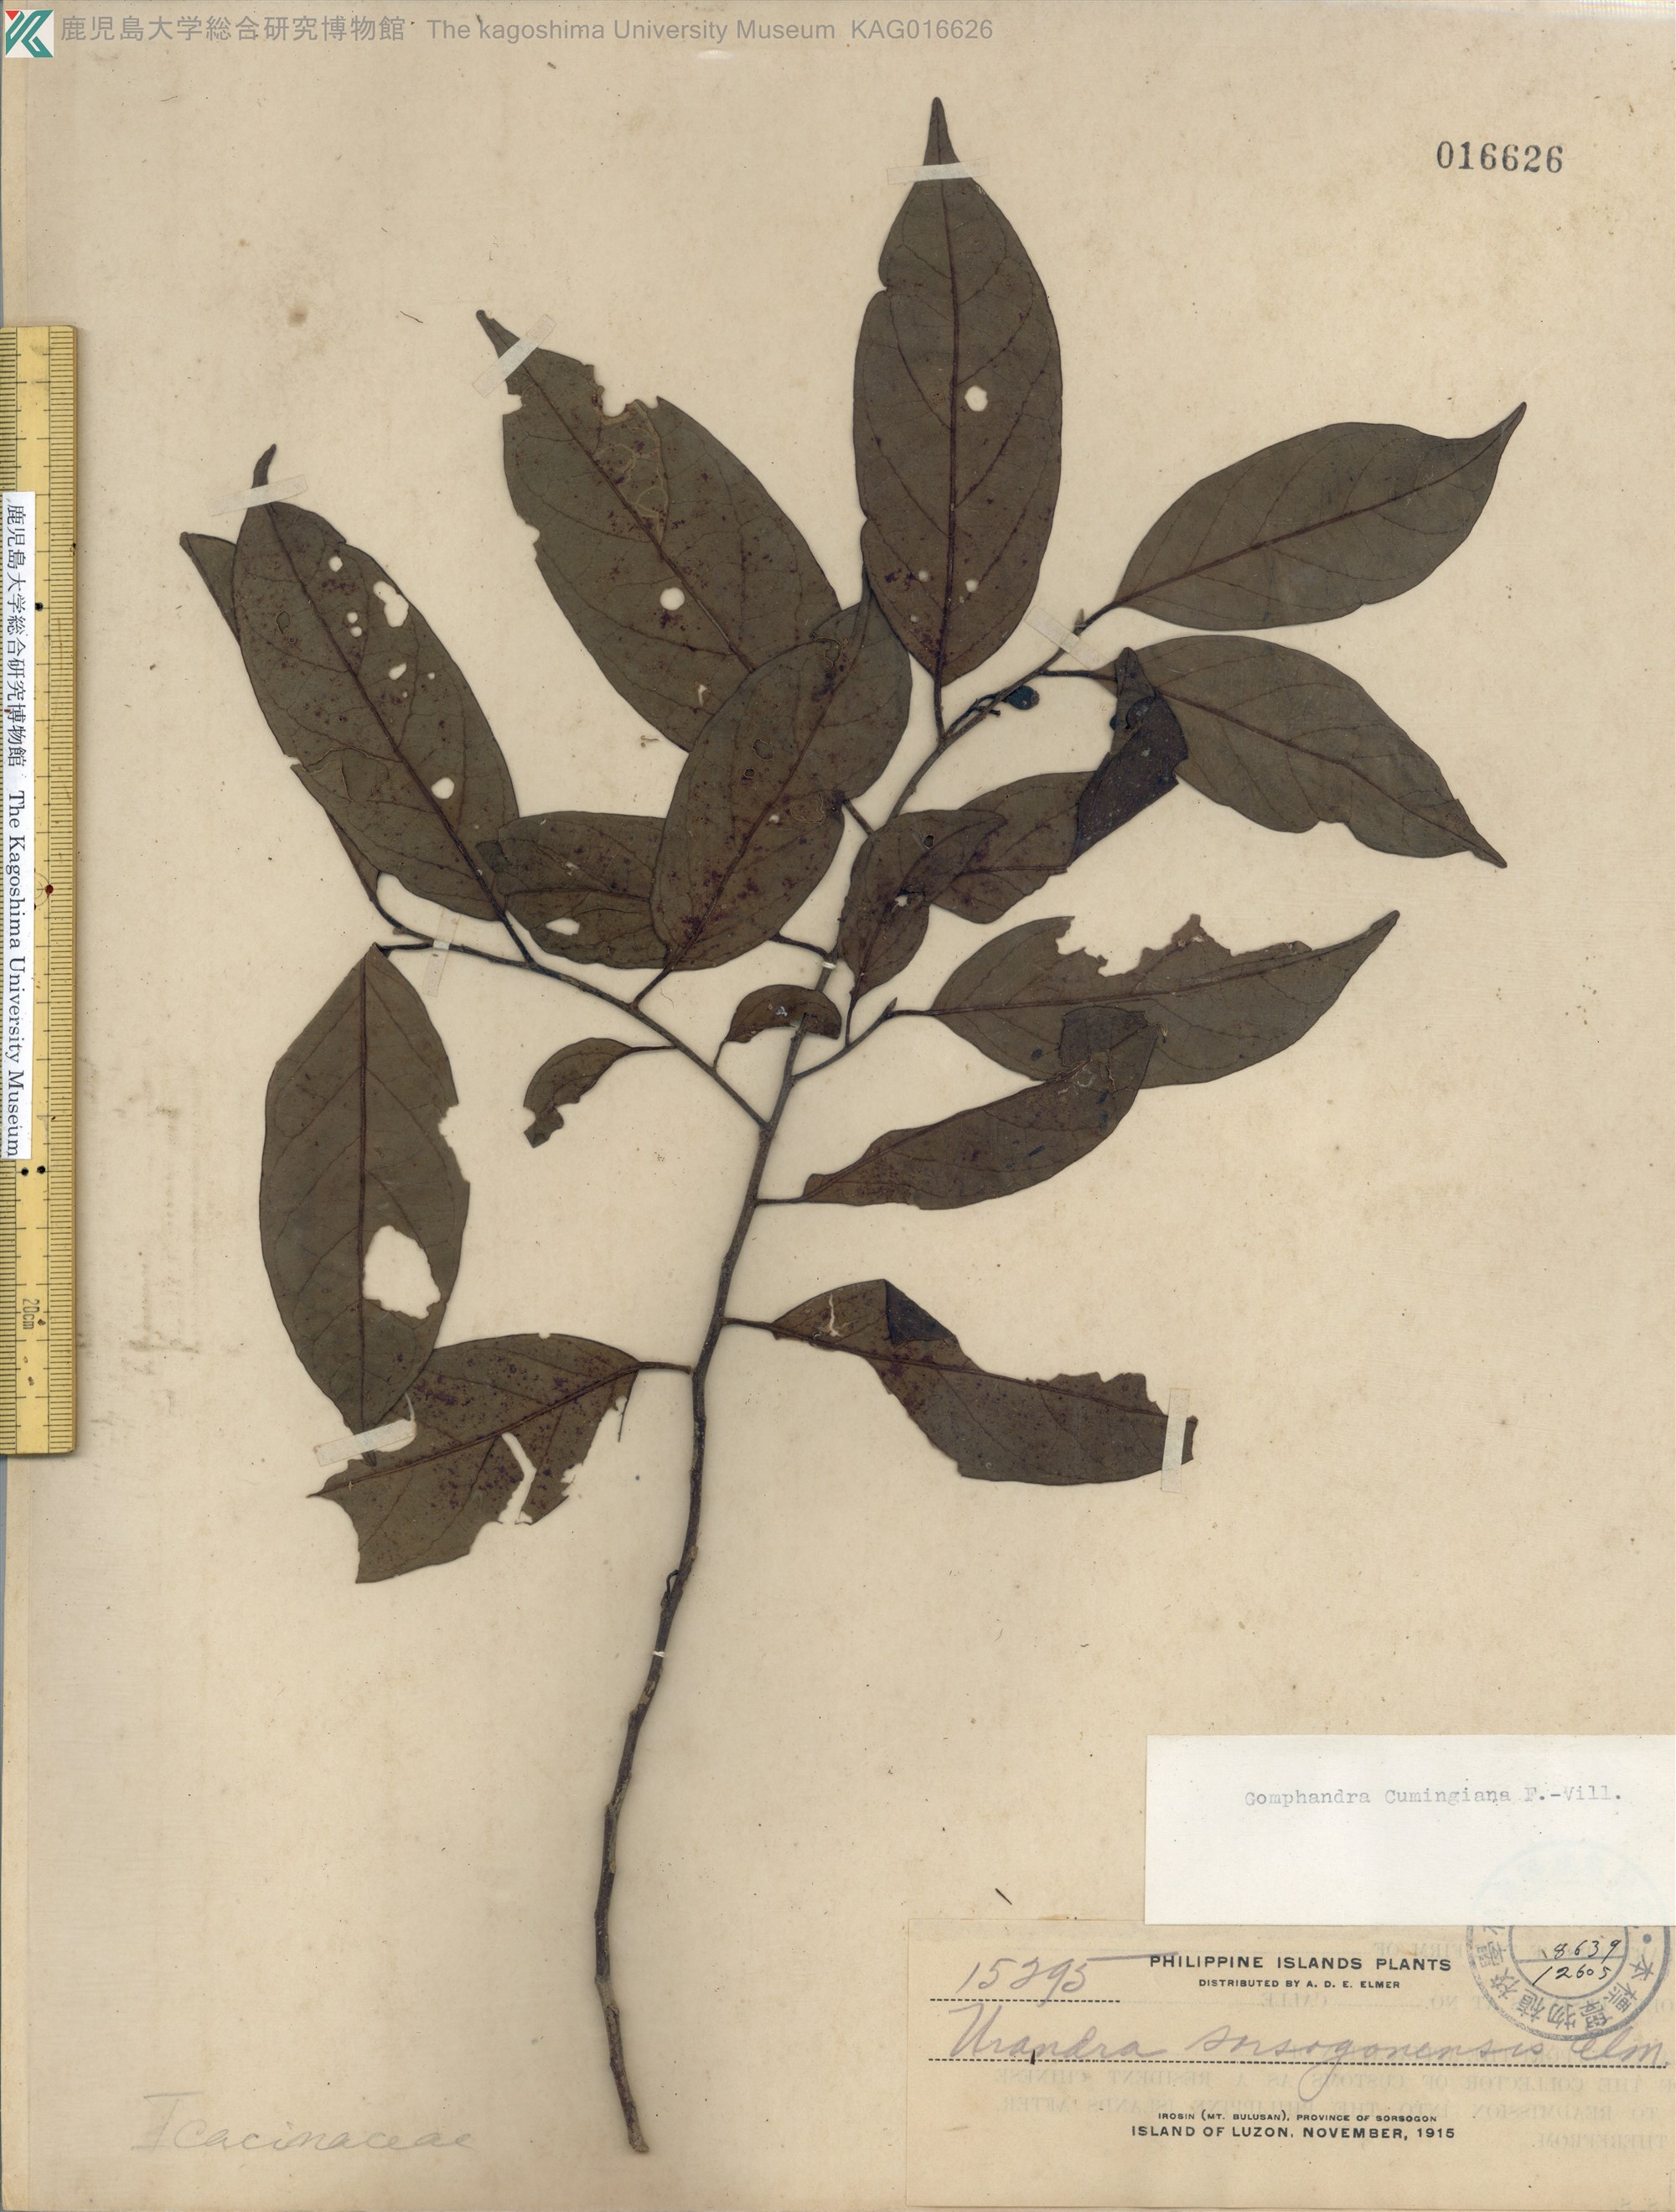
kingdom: Plantae
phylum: Tracheophyta
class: Magnoliopsida
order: Cardiopteridales
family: Stemonuraceae
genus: Gomphandra
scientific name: Gomphandra cumingiana
